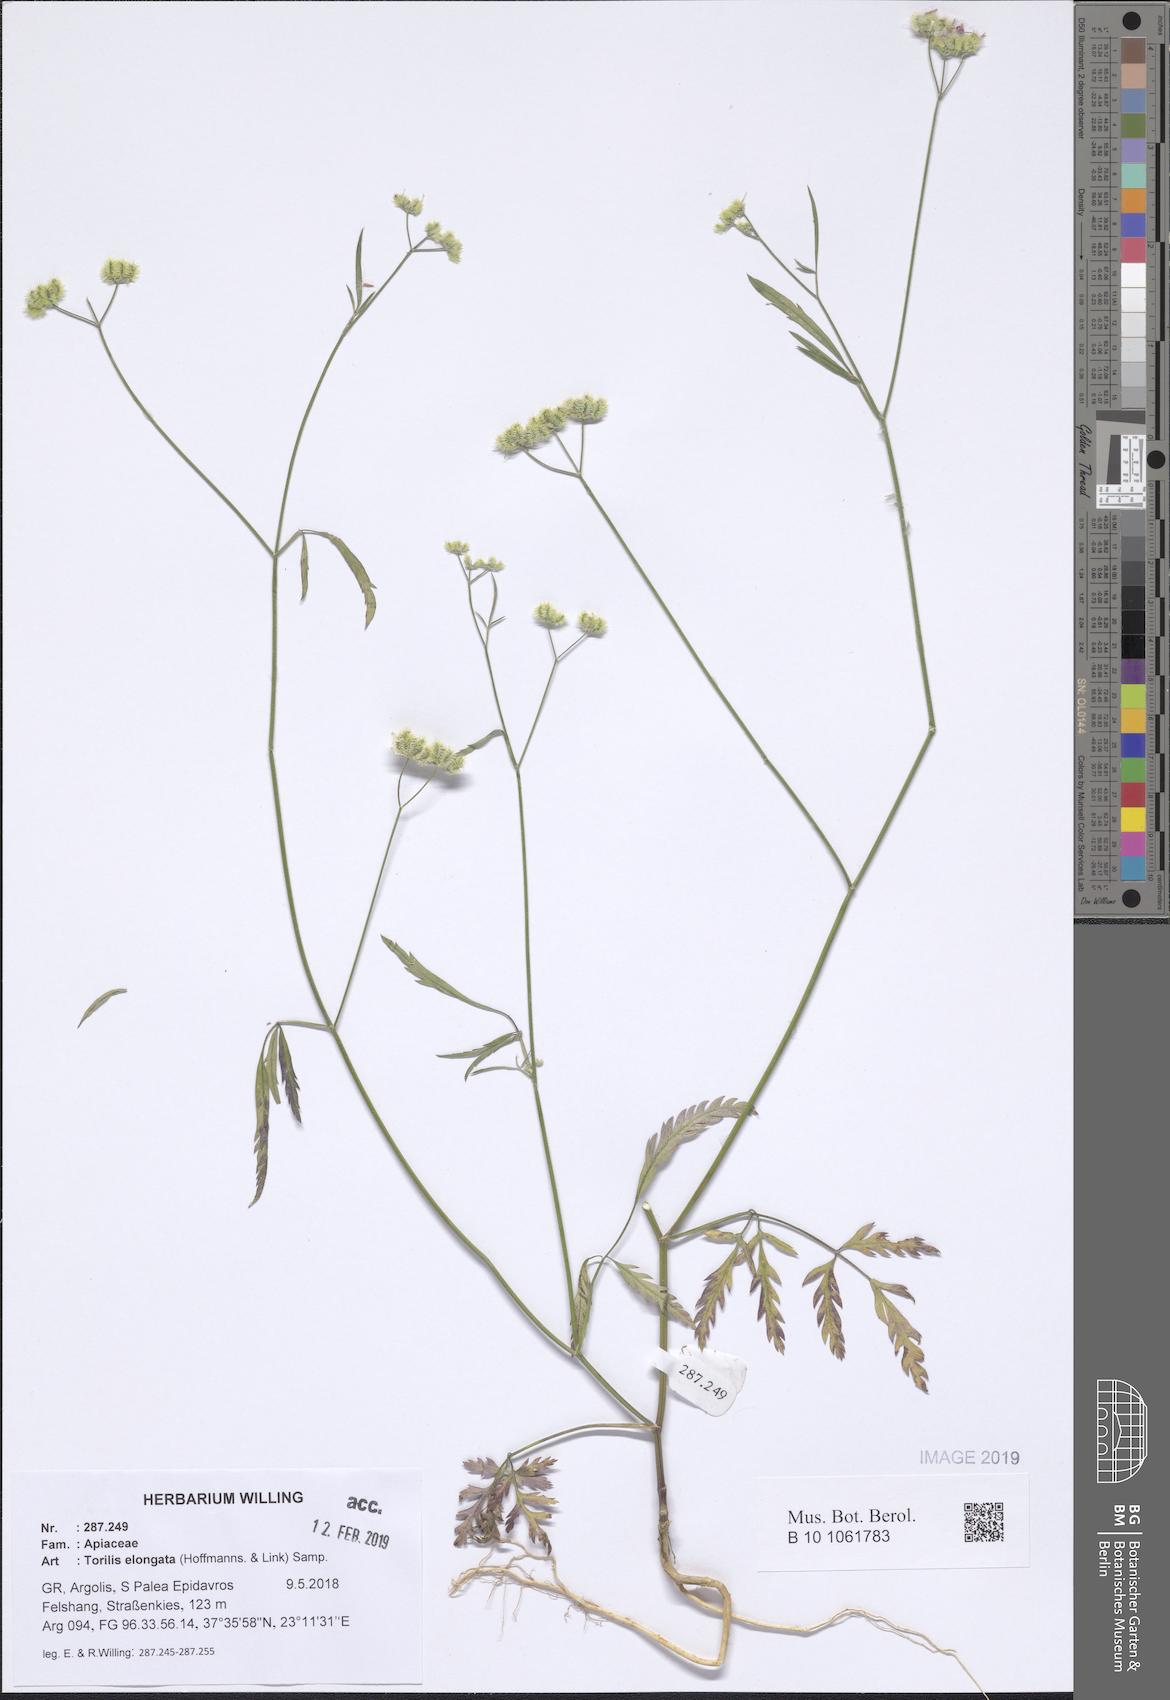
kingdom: Plantae
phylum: Tracheophyta
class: Magnoliopsida
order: Apiales
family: Apiaceae
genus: Torilis
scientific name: Torilis elongata
